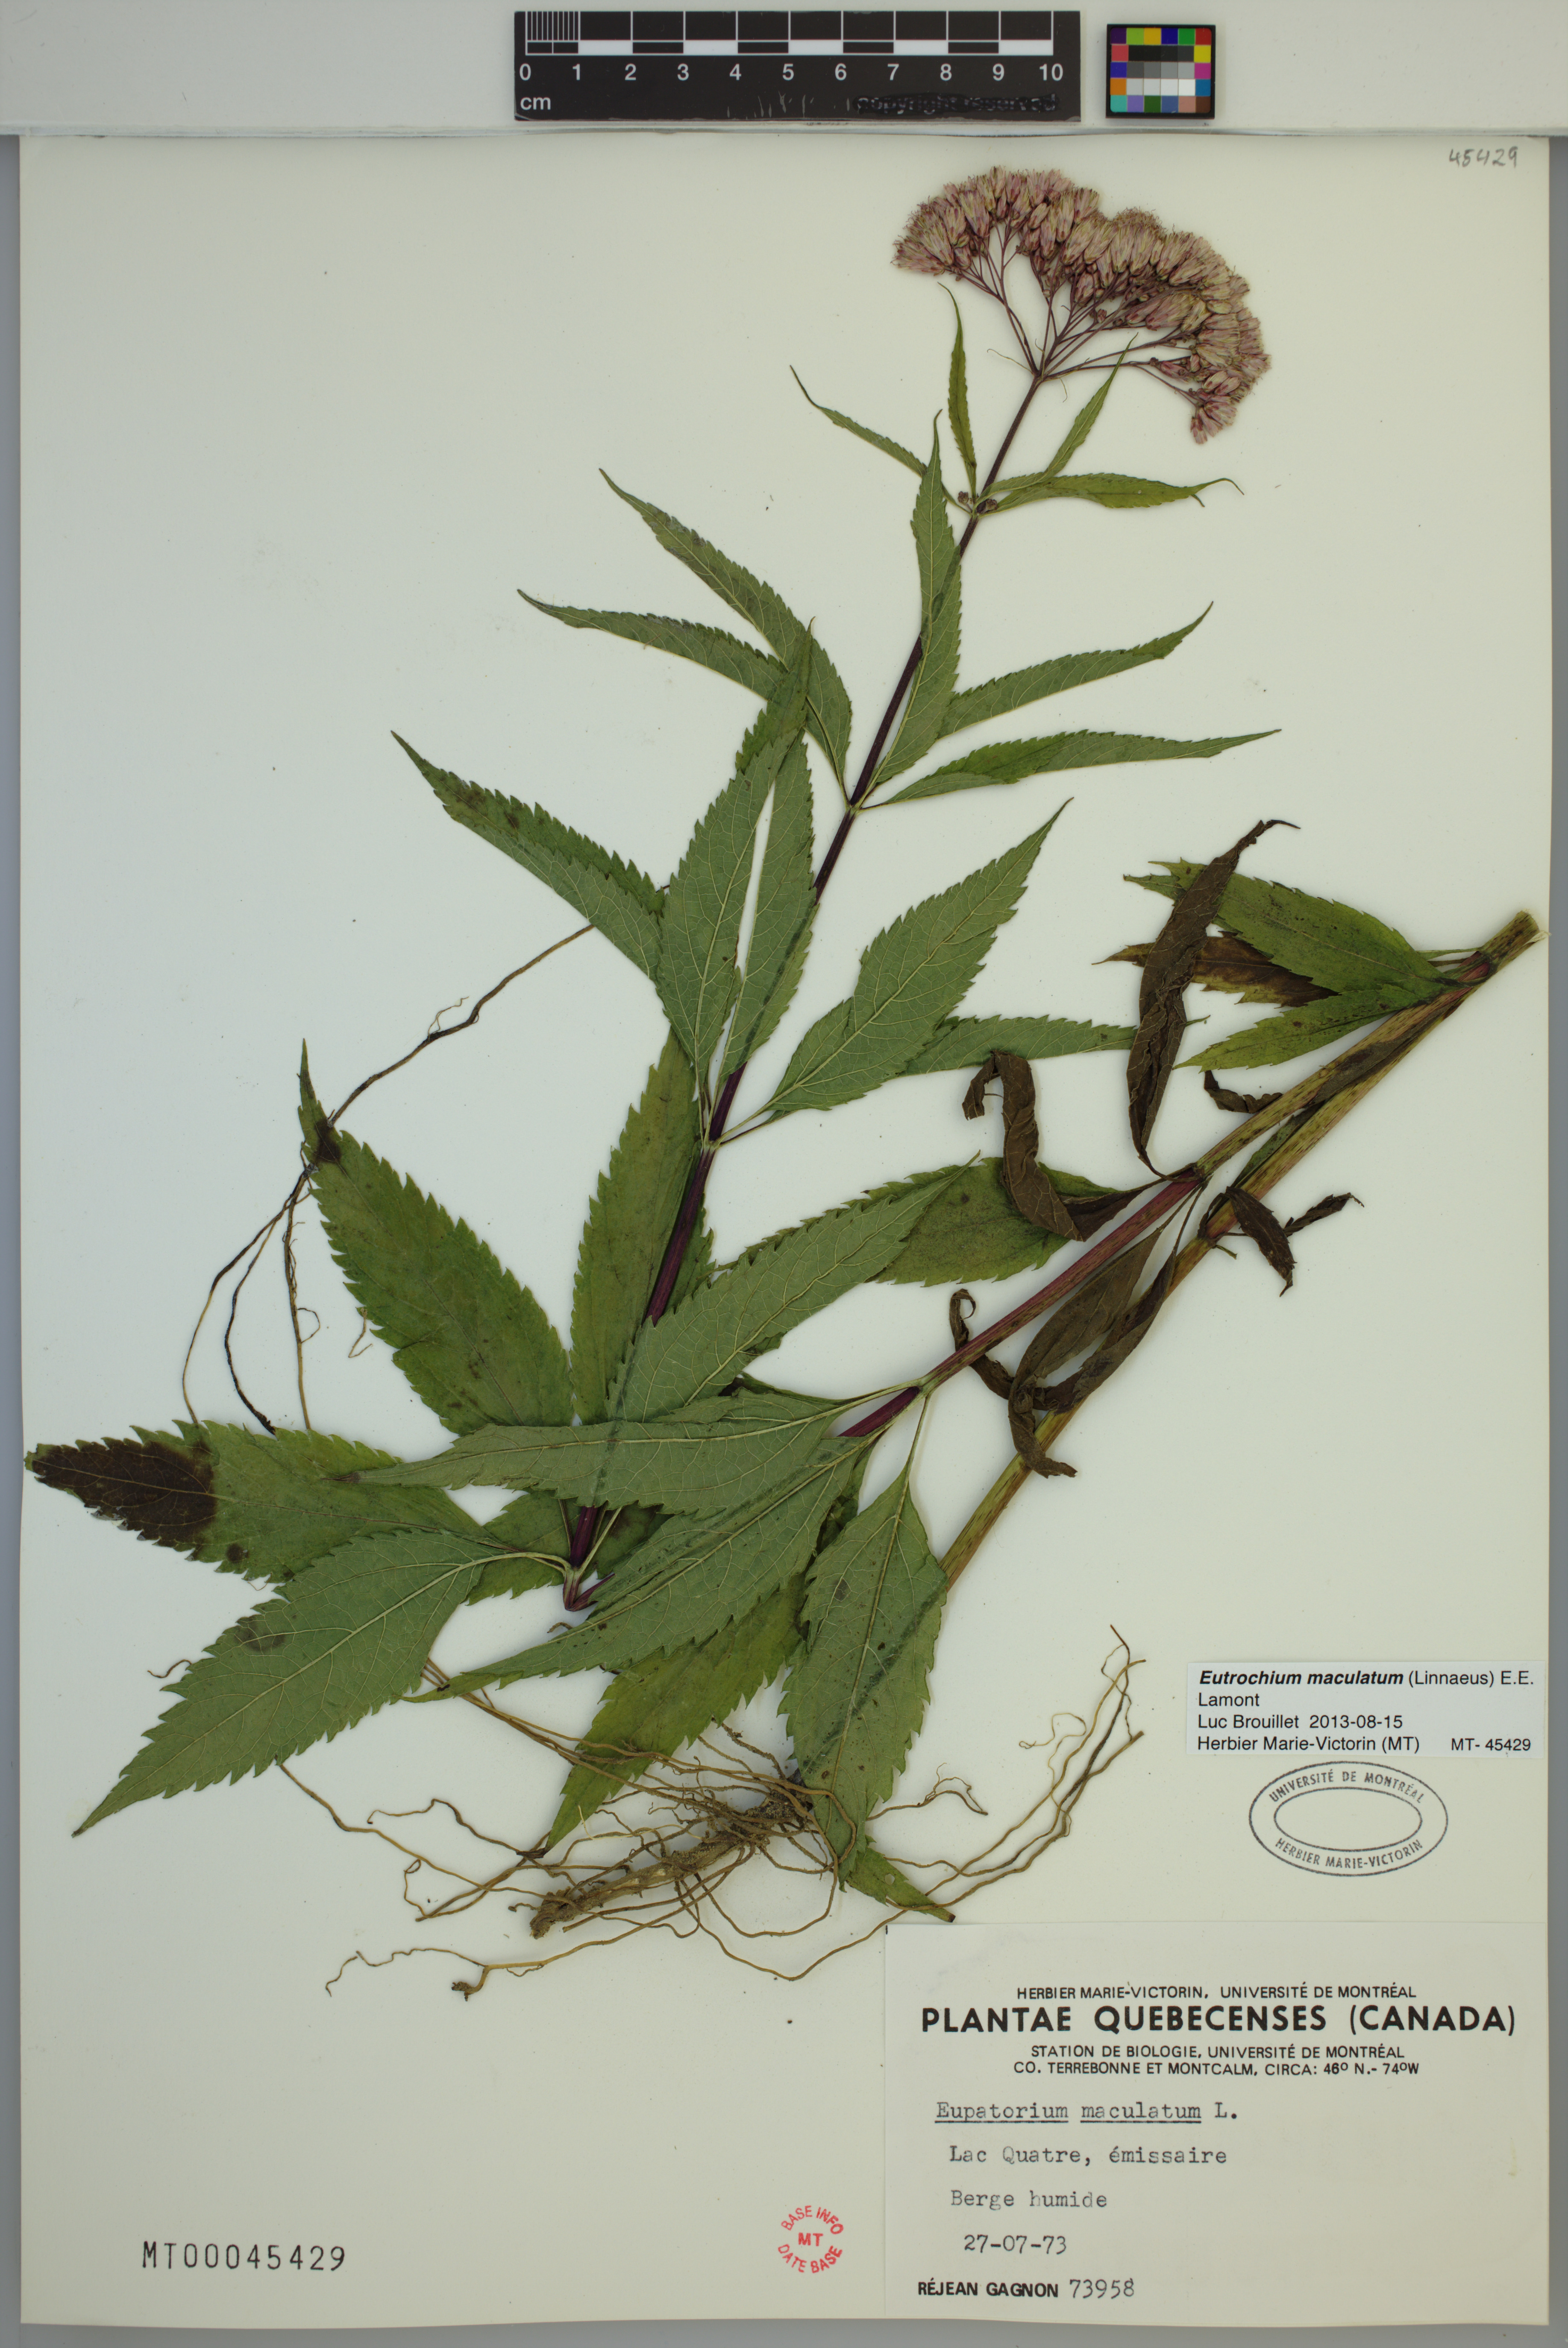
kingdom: Plantae
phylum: Tracheophyta
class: Magnoliopsida
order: Asterales
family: Asteraceae
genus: Eutrochium
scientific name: Eutrochium maculatum
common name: Spotted joe pye weed
